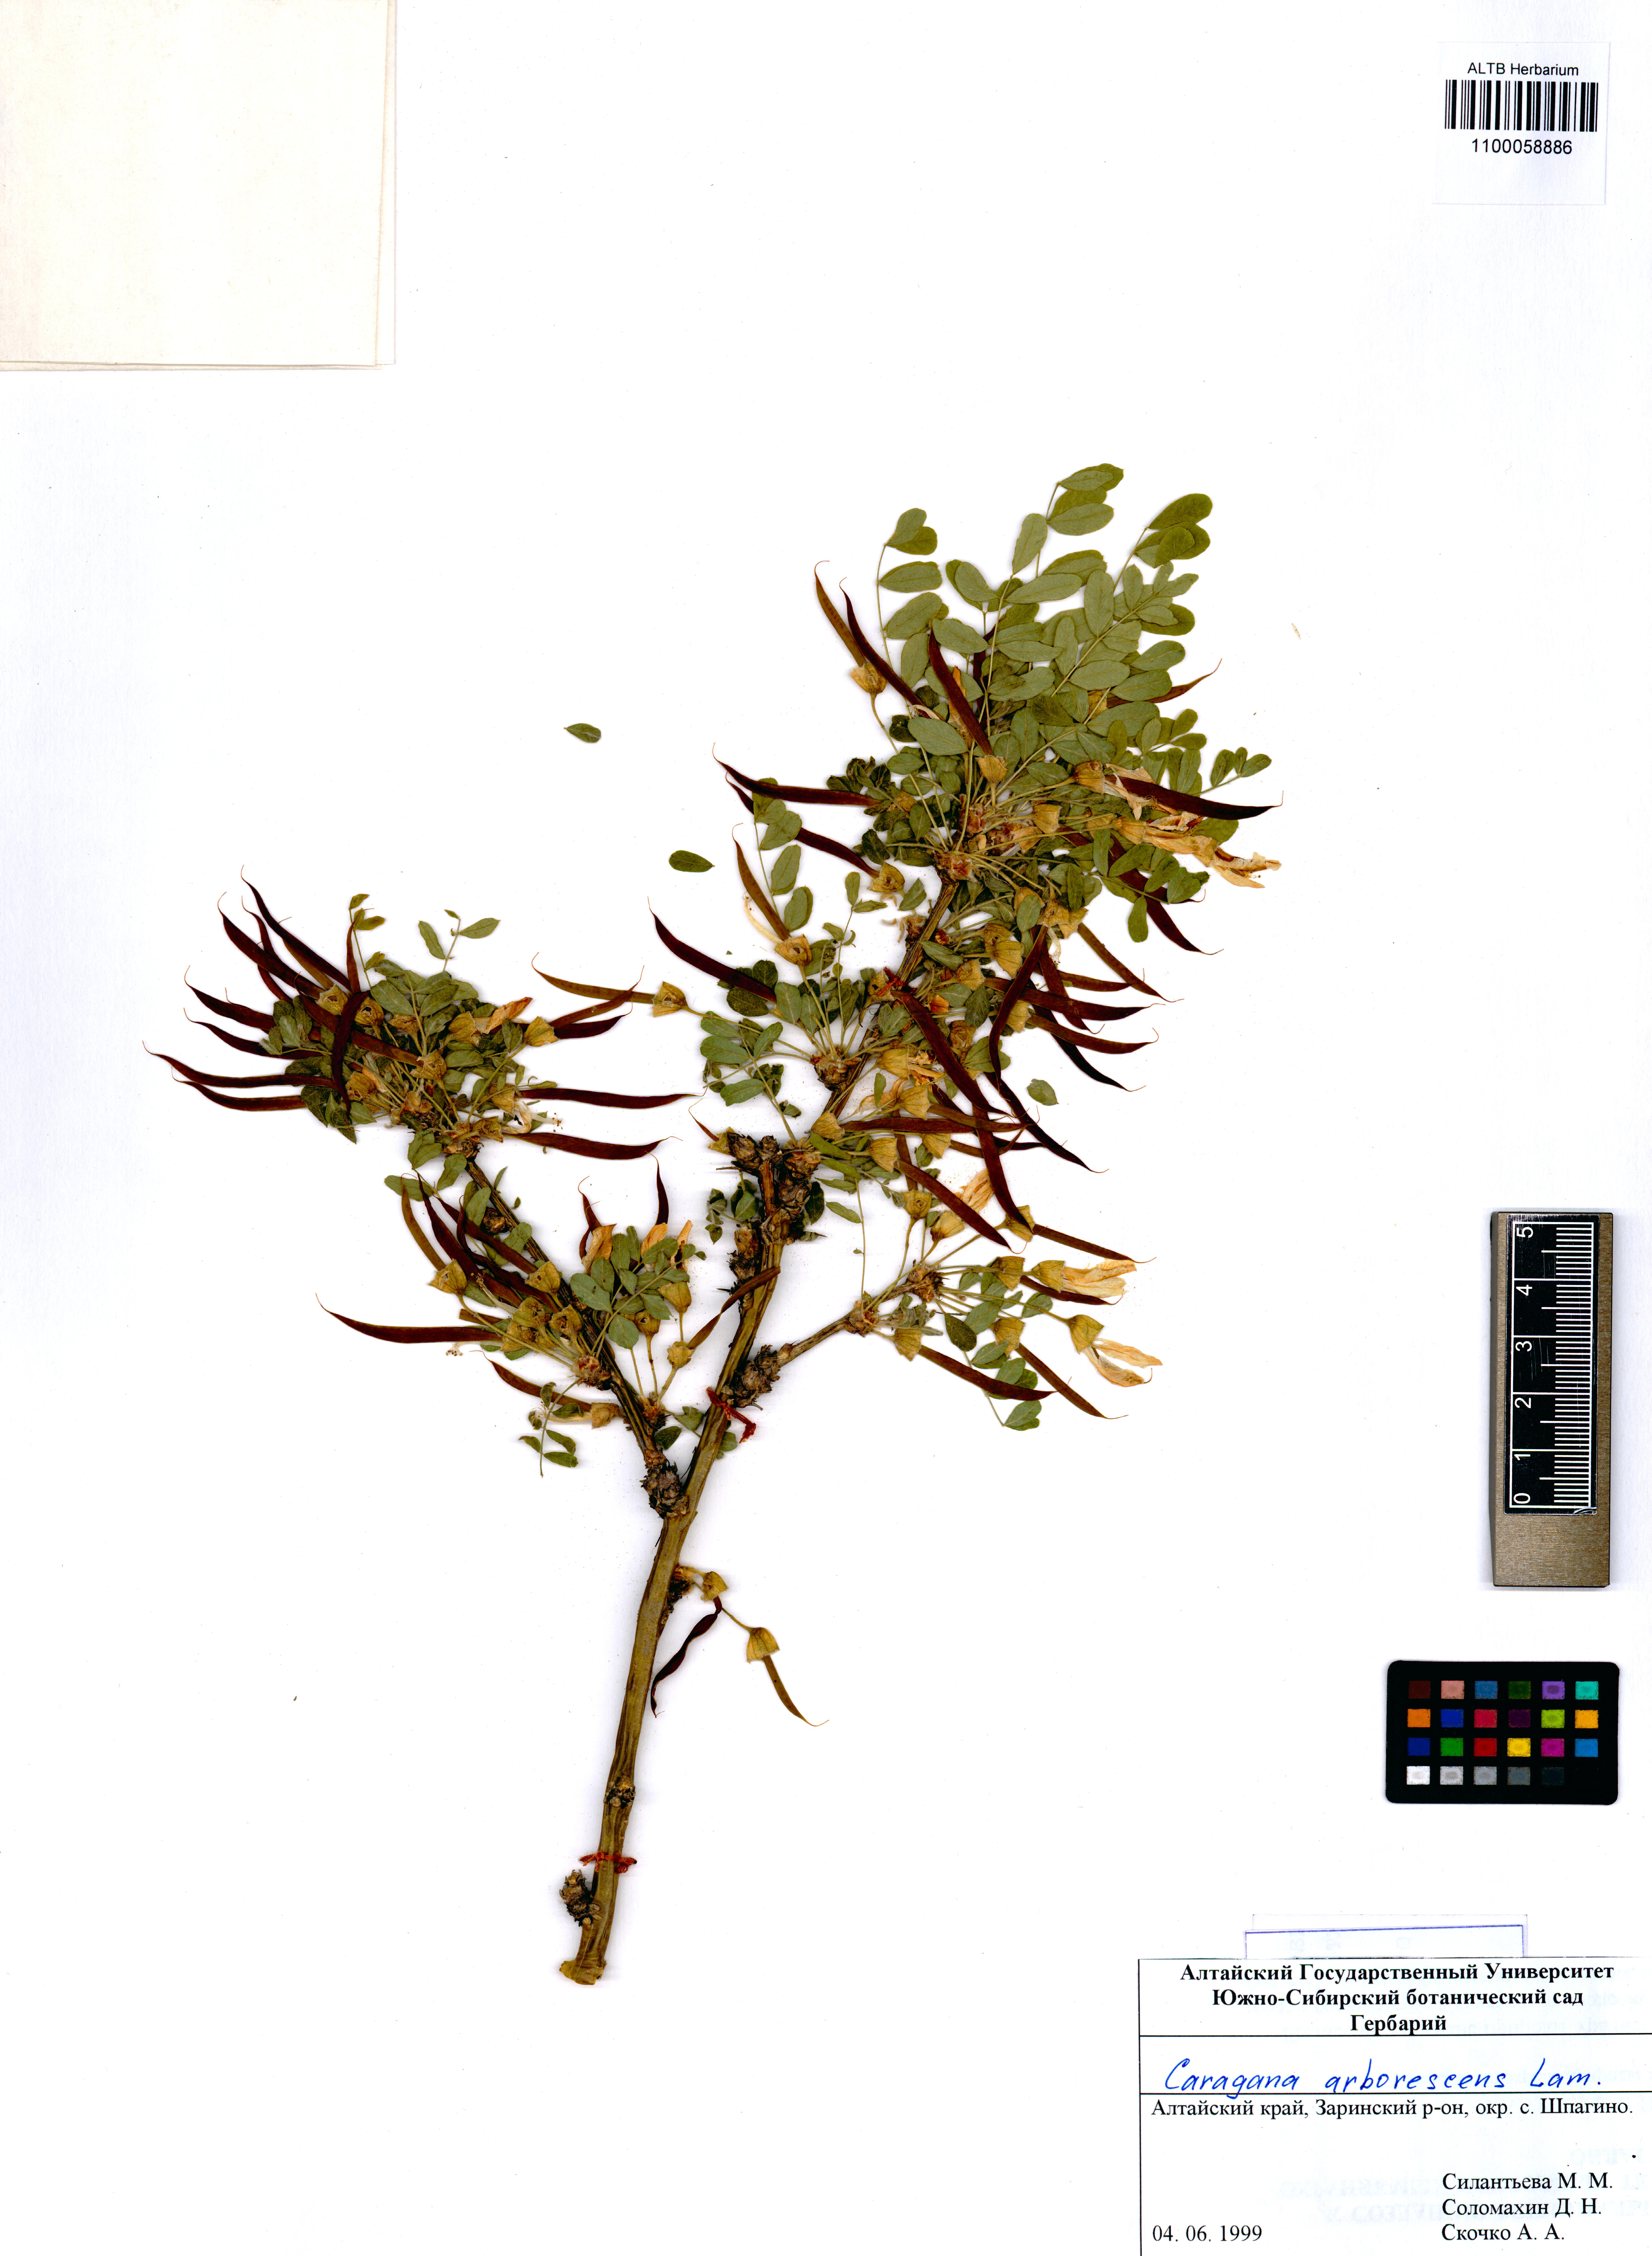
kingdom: Plantae
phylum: Tracheophyta
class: Magnoliopsida
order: Fabales
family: Fabaceae
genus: Caragana
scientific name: Caragana arborescens
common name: Siberian peashrub
